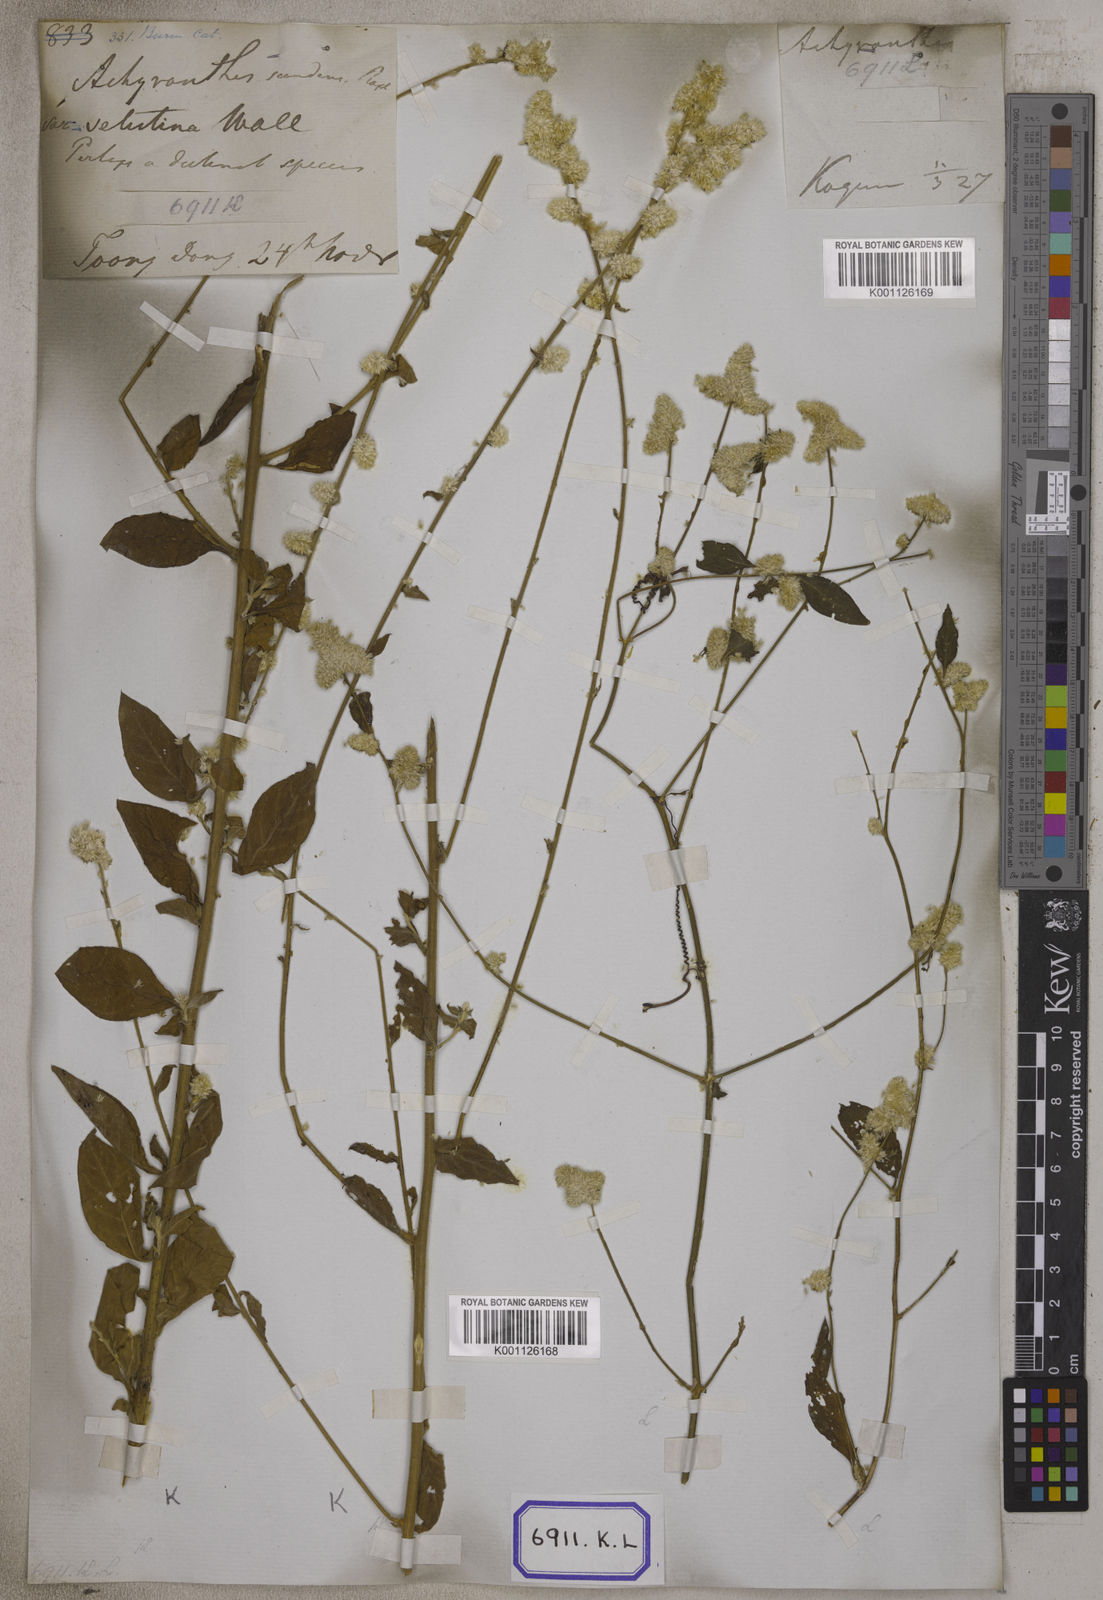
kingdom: Plantae
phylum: Tracheophyta
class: Magnoliopsida
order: Caryophyllales
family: Amaranthaceae
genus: Ouret
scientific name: Ouret sanguinolenta
